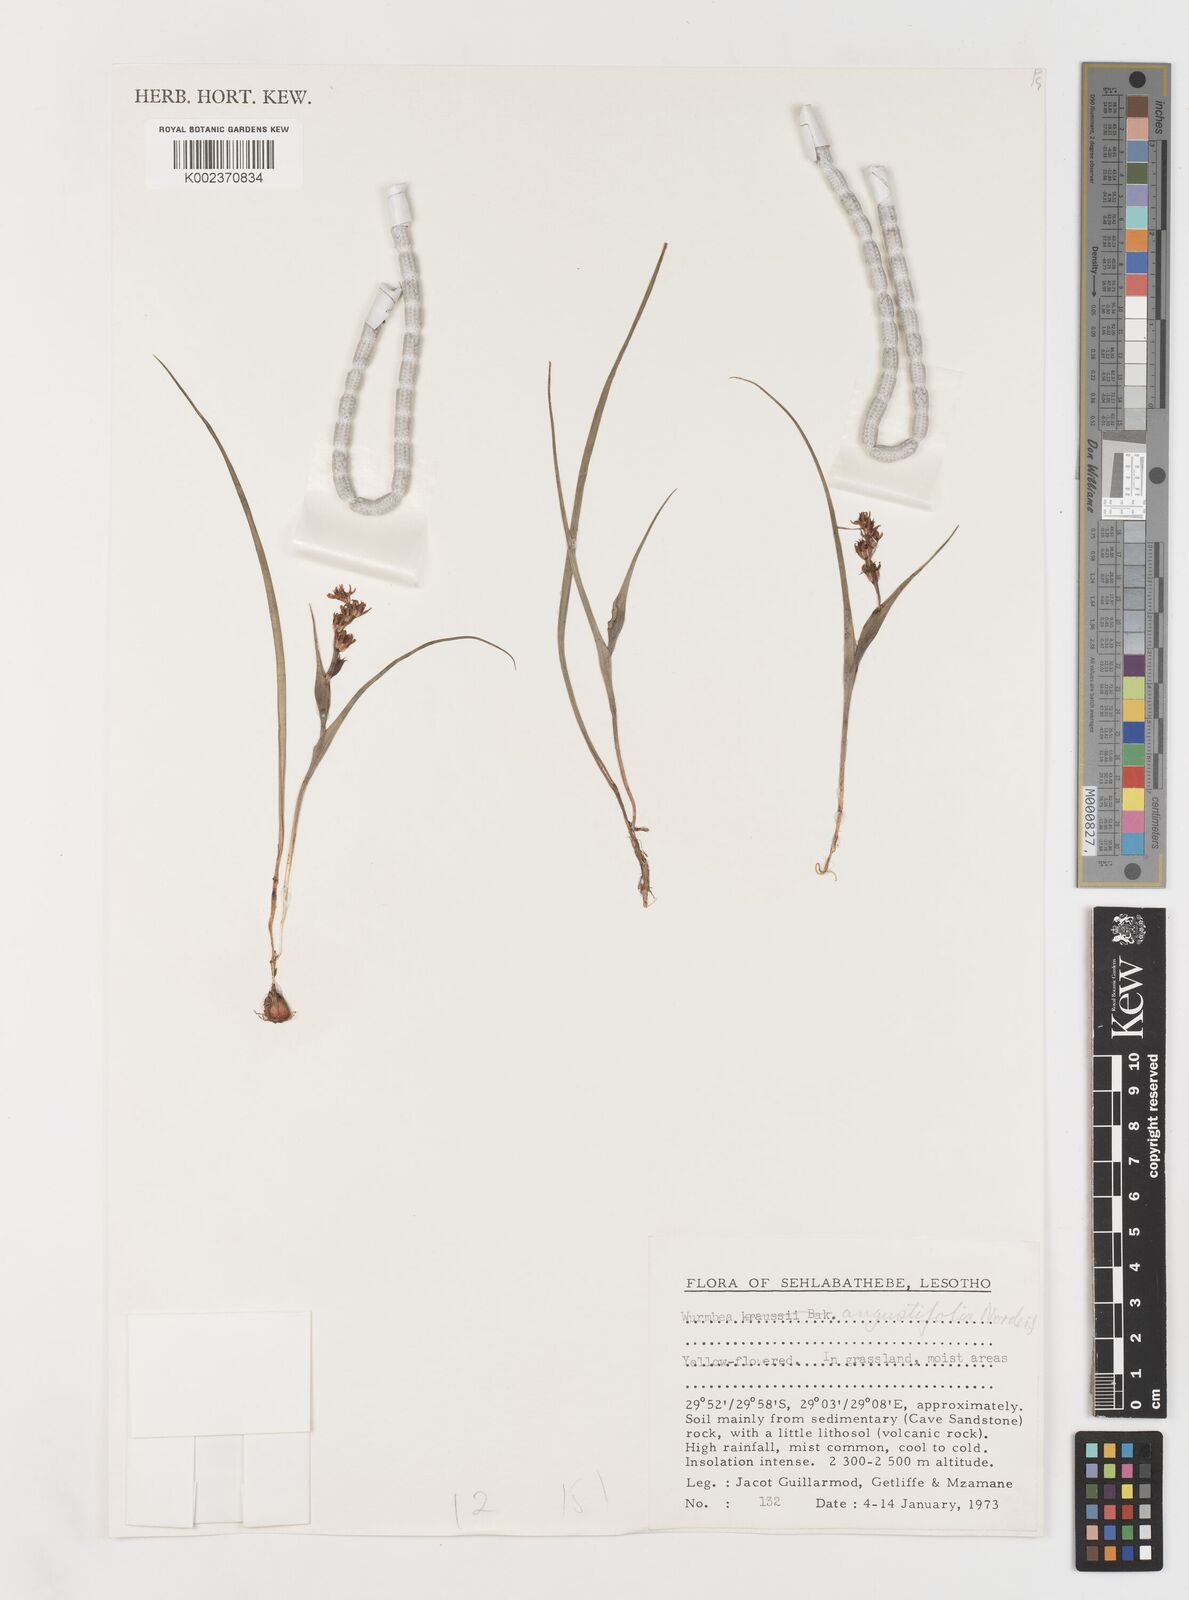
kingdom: Plantae
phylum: Tracheophyta
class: Liliopsida
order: Liliales
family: Colchicaceae
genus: Wurmbea
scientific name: Wurmbea angustifolia
